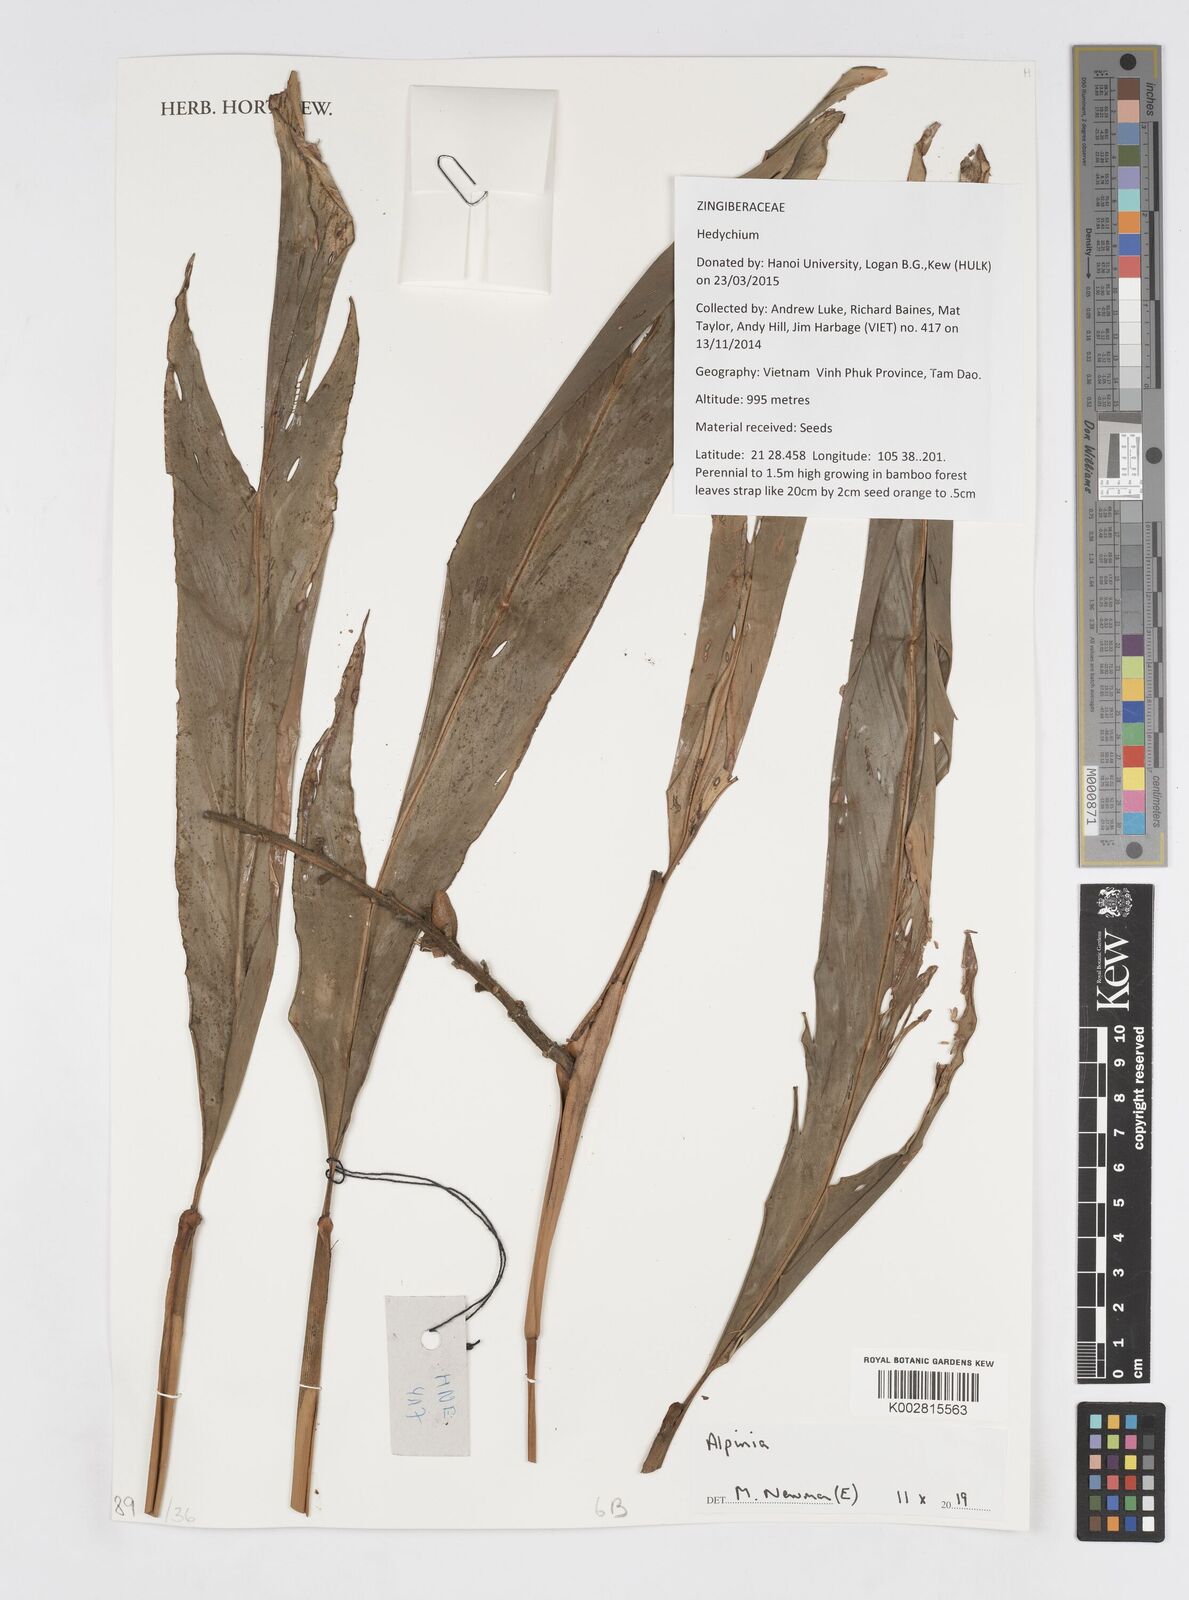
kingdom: Plantae
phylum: Tracheophyta
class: Liliopsida
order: Zingiberales
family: Zingiberaceae
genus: Alpinia
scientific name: Alpinia
